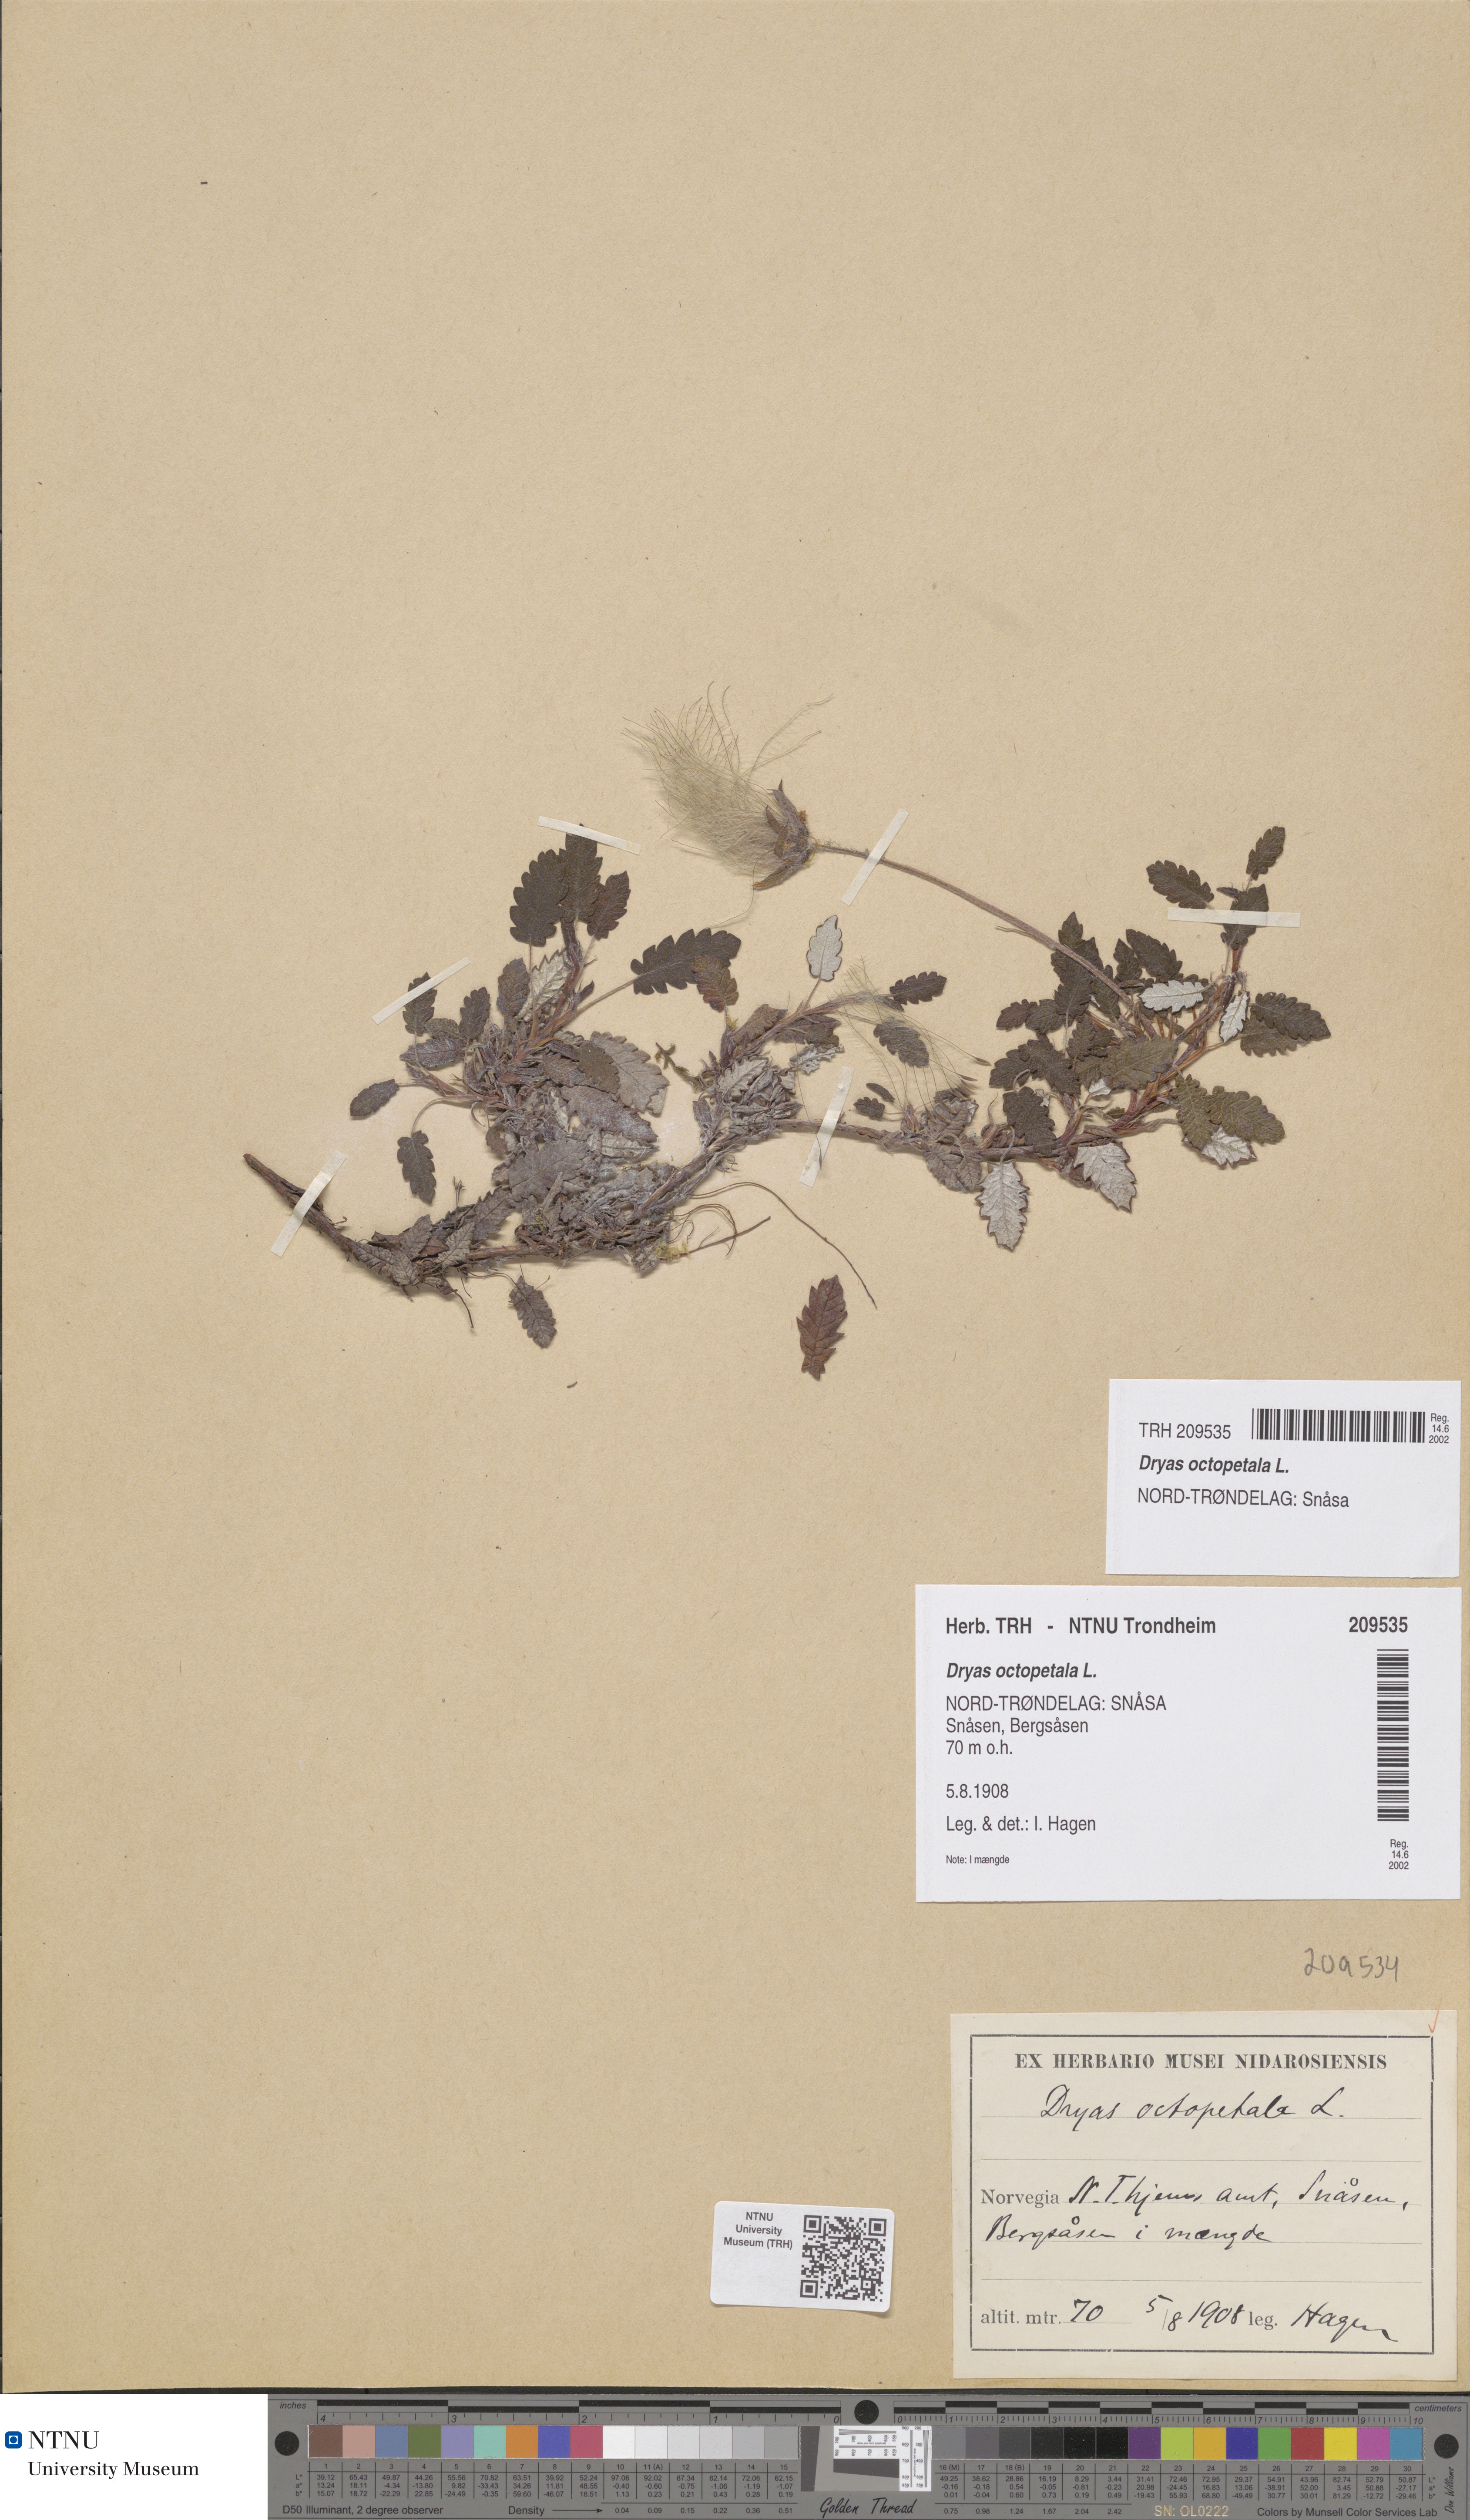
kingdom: Plantae
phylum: Tracheophyta
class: Magnoliopsida
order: Rosales
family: Rosaceae
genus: Dryas
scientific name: Dryas octopetala
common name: Eight-petal mountain-avens
